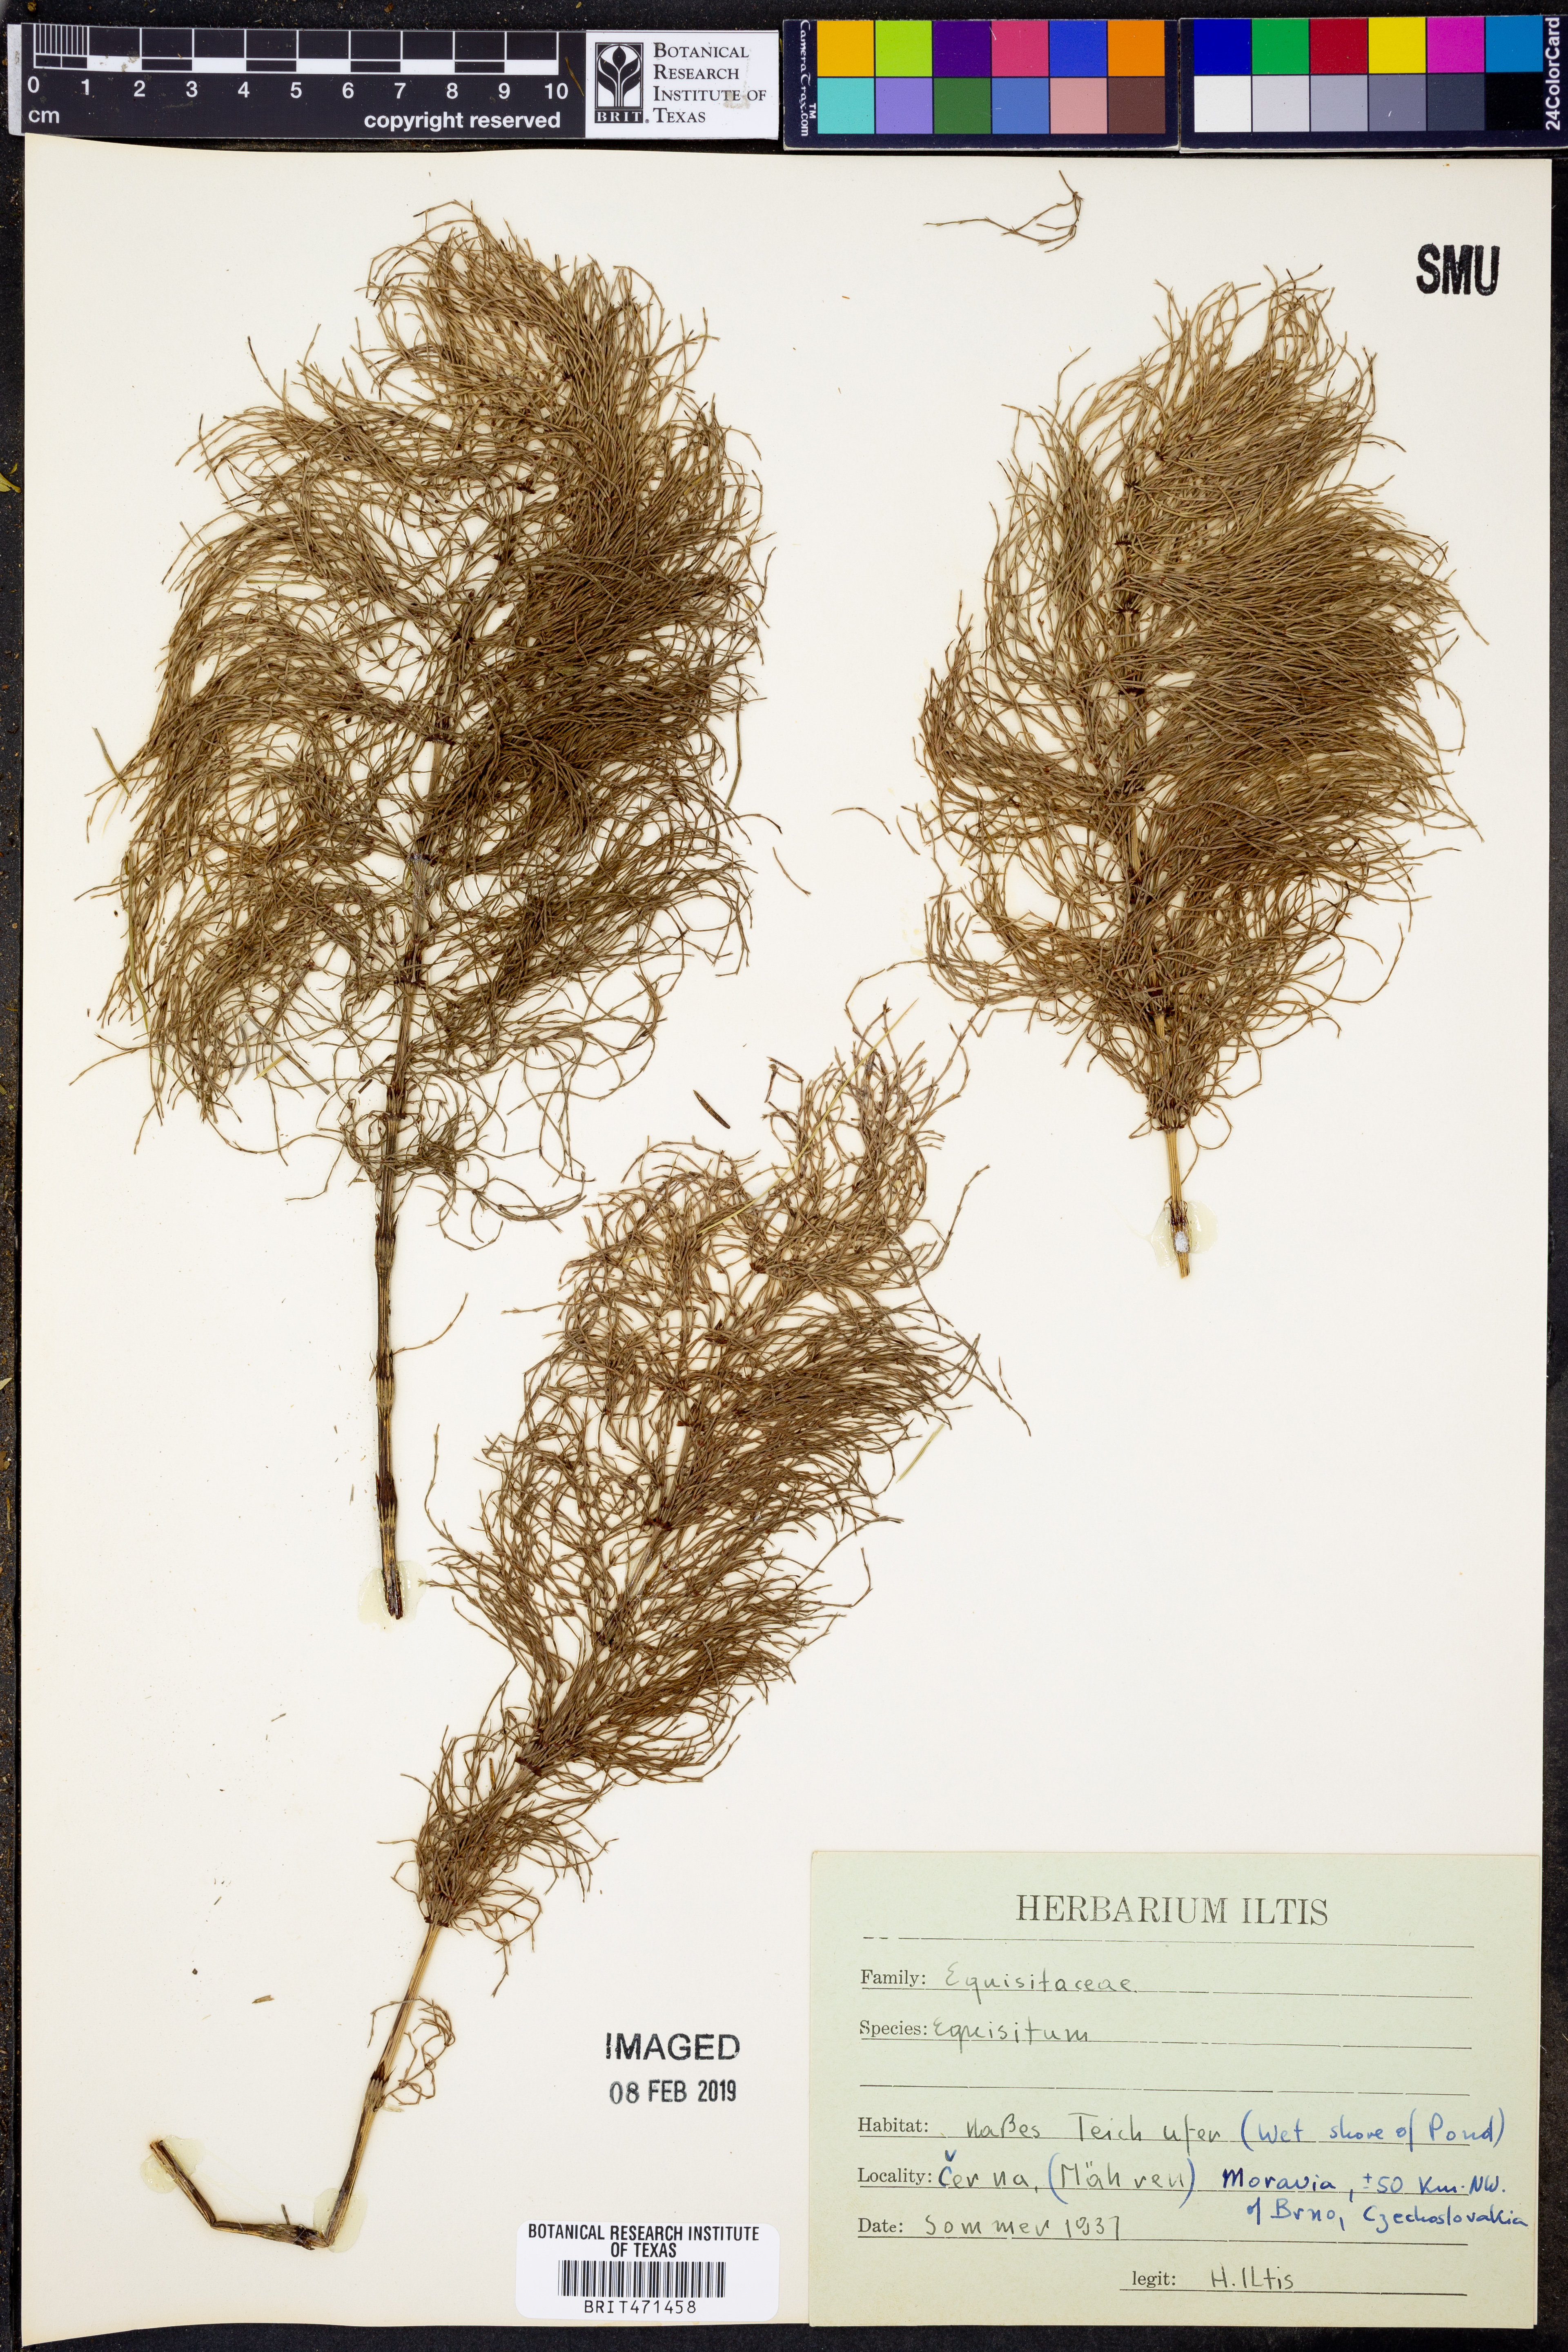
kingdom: Plantae
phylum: Tracheophyta
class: Polypodiopsida
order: Equisetales
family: Equisetaceae
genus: Equisetum
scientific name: Equisetum
